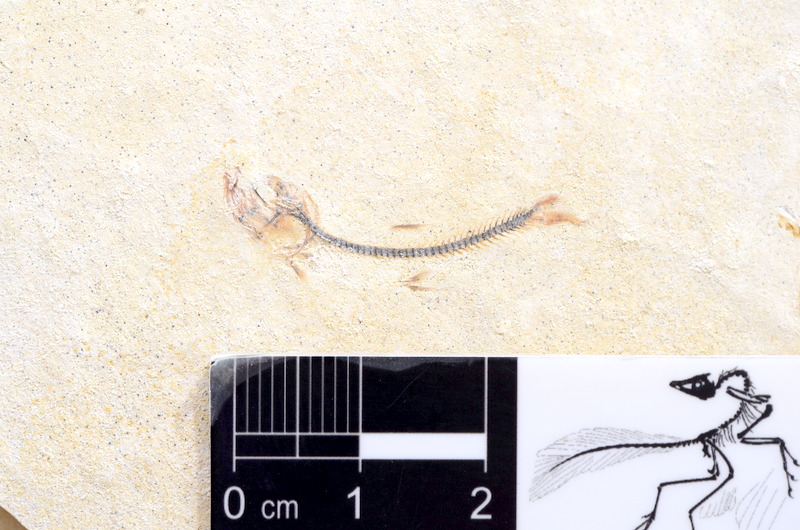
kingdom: Animalia
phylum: Chordata
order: Salmoniformes
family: Orthogonikleithridae
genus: Orthogonikleithrus
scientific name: Orthogonikleithrus hoelli
